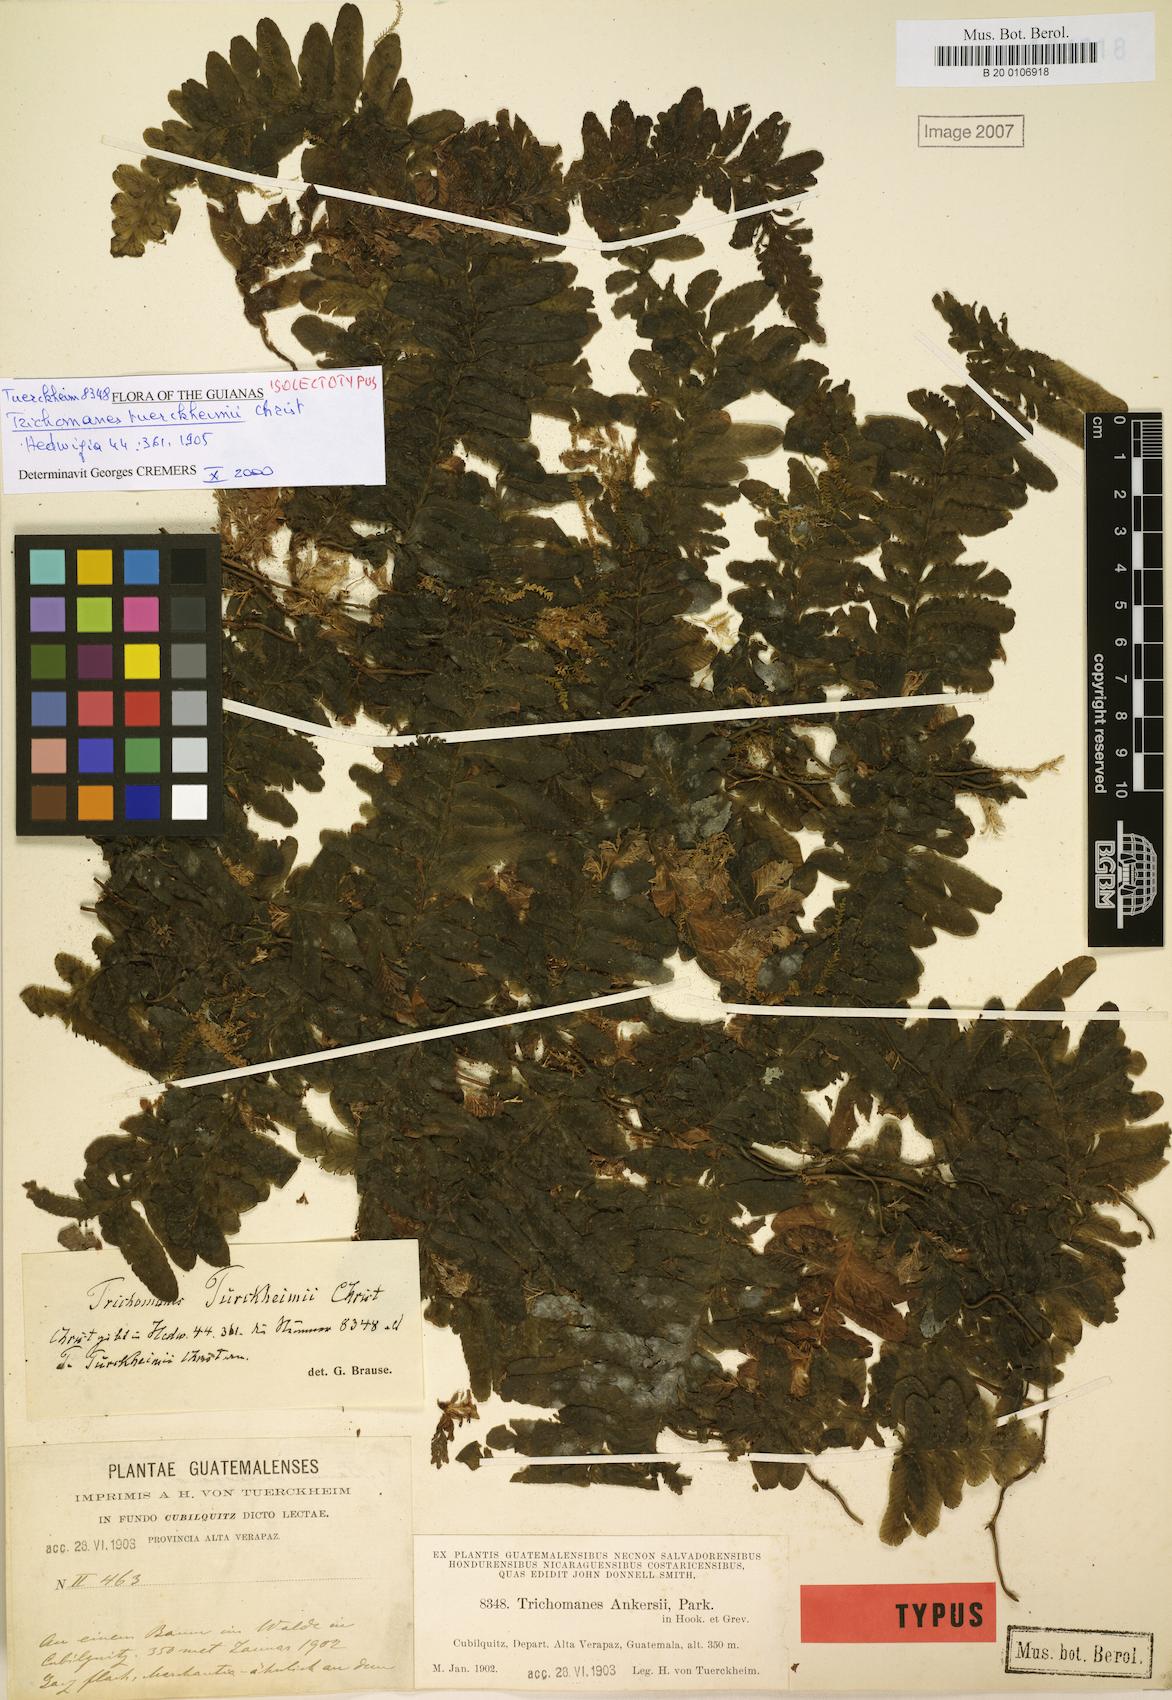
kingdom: Plantae
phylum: Tracheophyta
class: Polypodiopsida
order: Hymenophyllales
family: Hymenophyllaceae
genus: Trichomanes
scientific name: Trichomanes tuerckheimii
